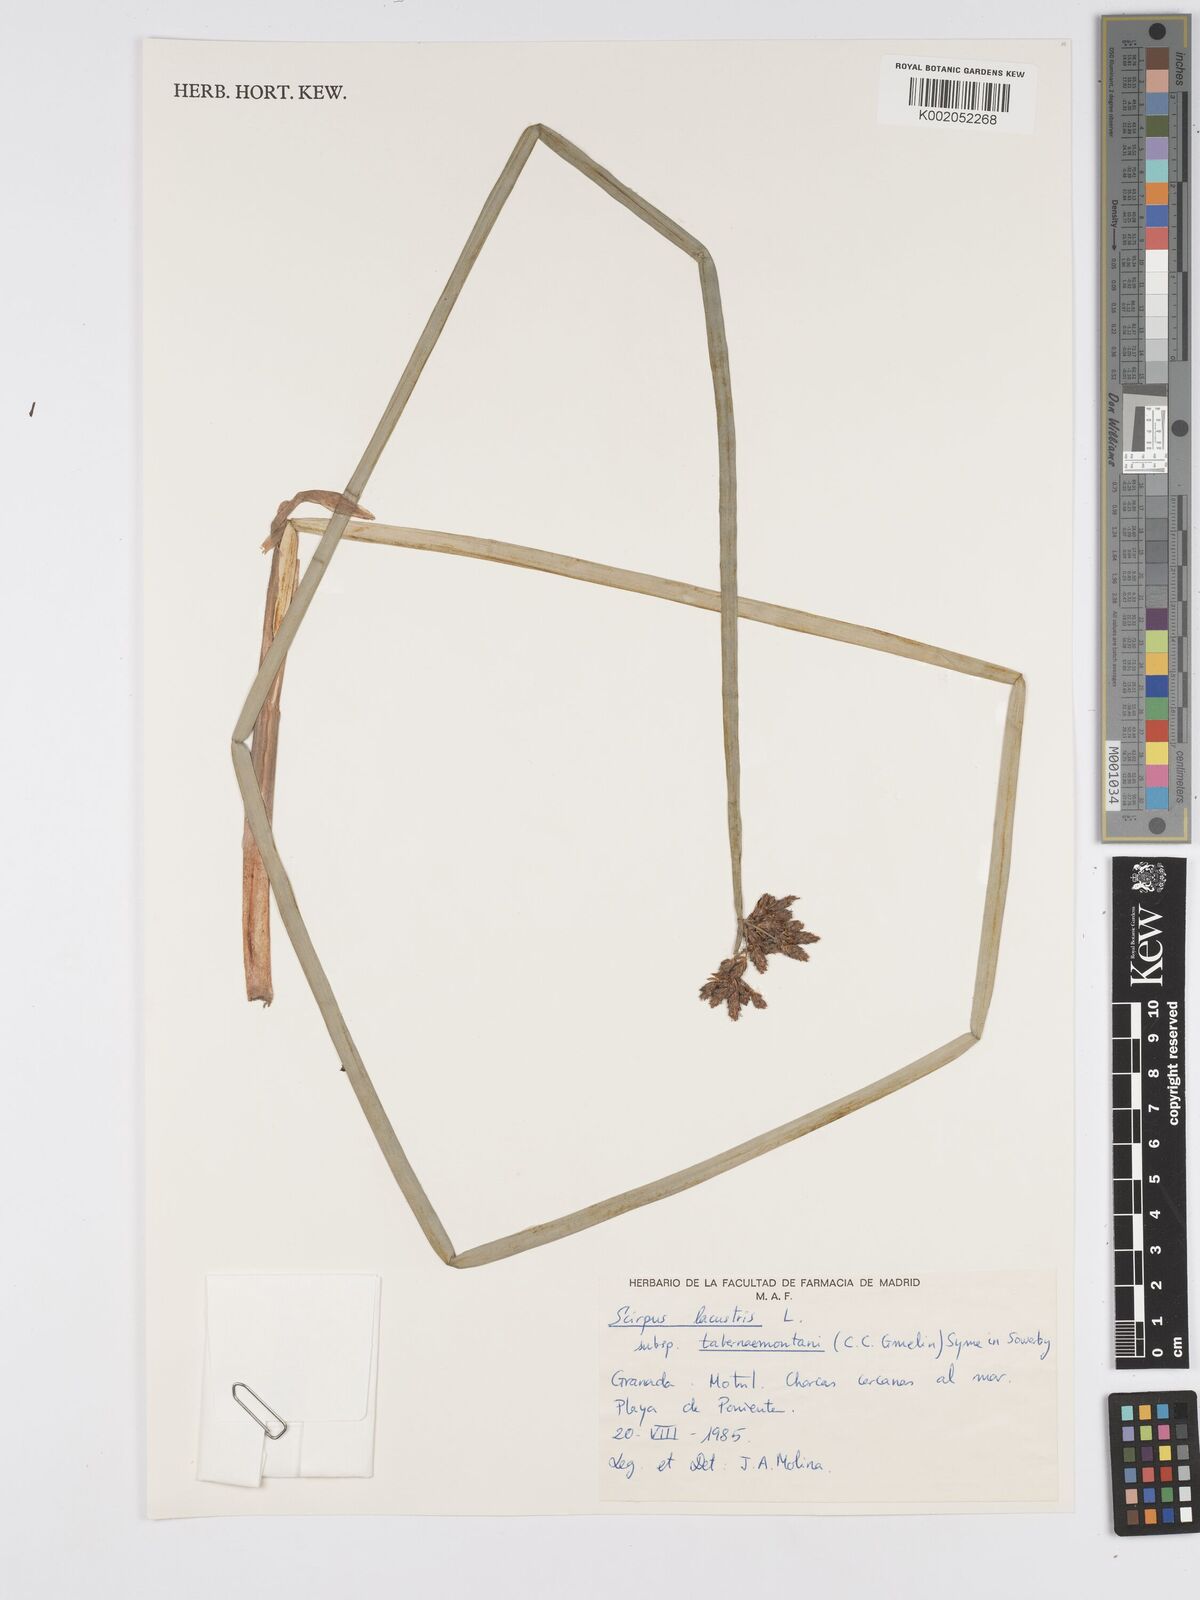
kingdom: Plantae
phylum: Tracheophyta
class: Liliopsida
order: Poales
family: Cyperaceae
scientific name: Cyperaceae
